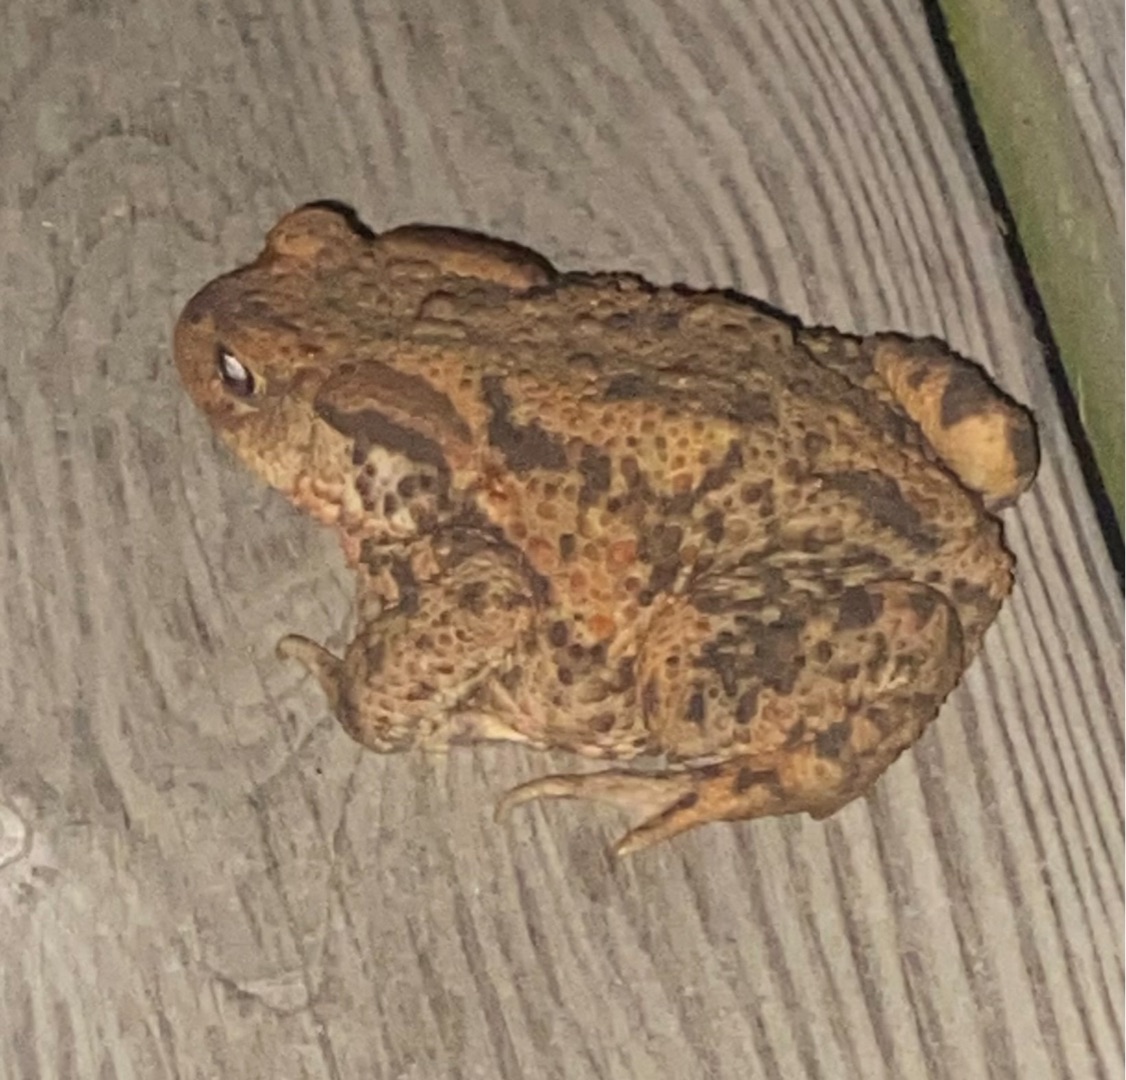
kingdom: Animalia
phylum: Chordata
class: Amphibia
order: Anura
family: Bufonidae
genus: Bufo
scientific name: Bufo bufo
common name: Skrubtudse
